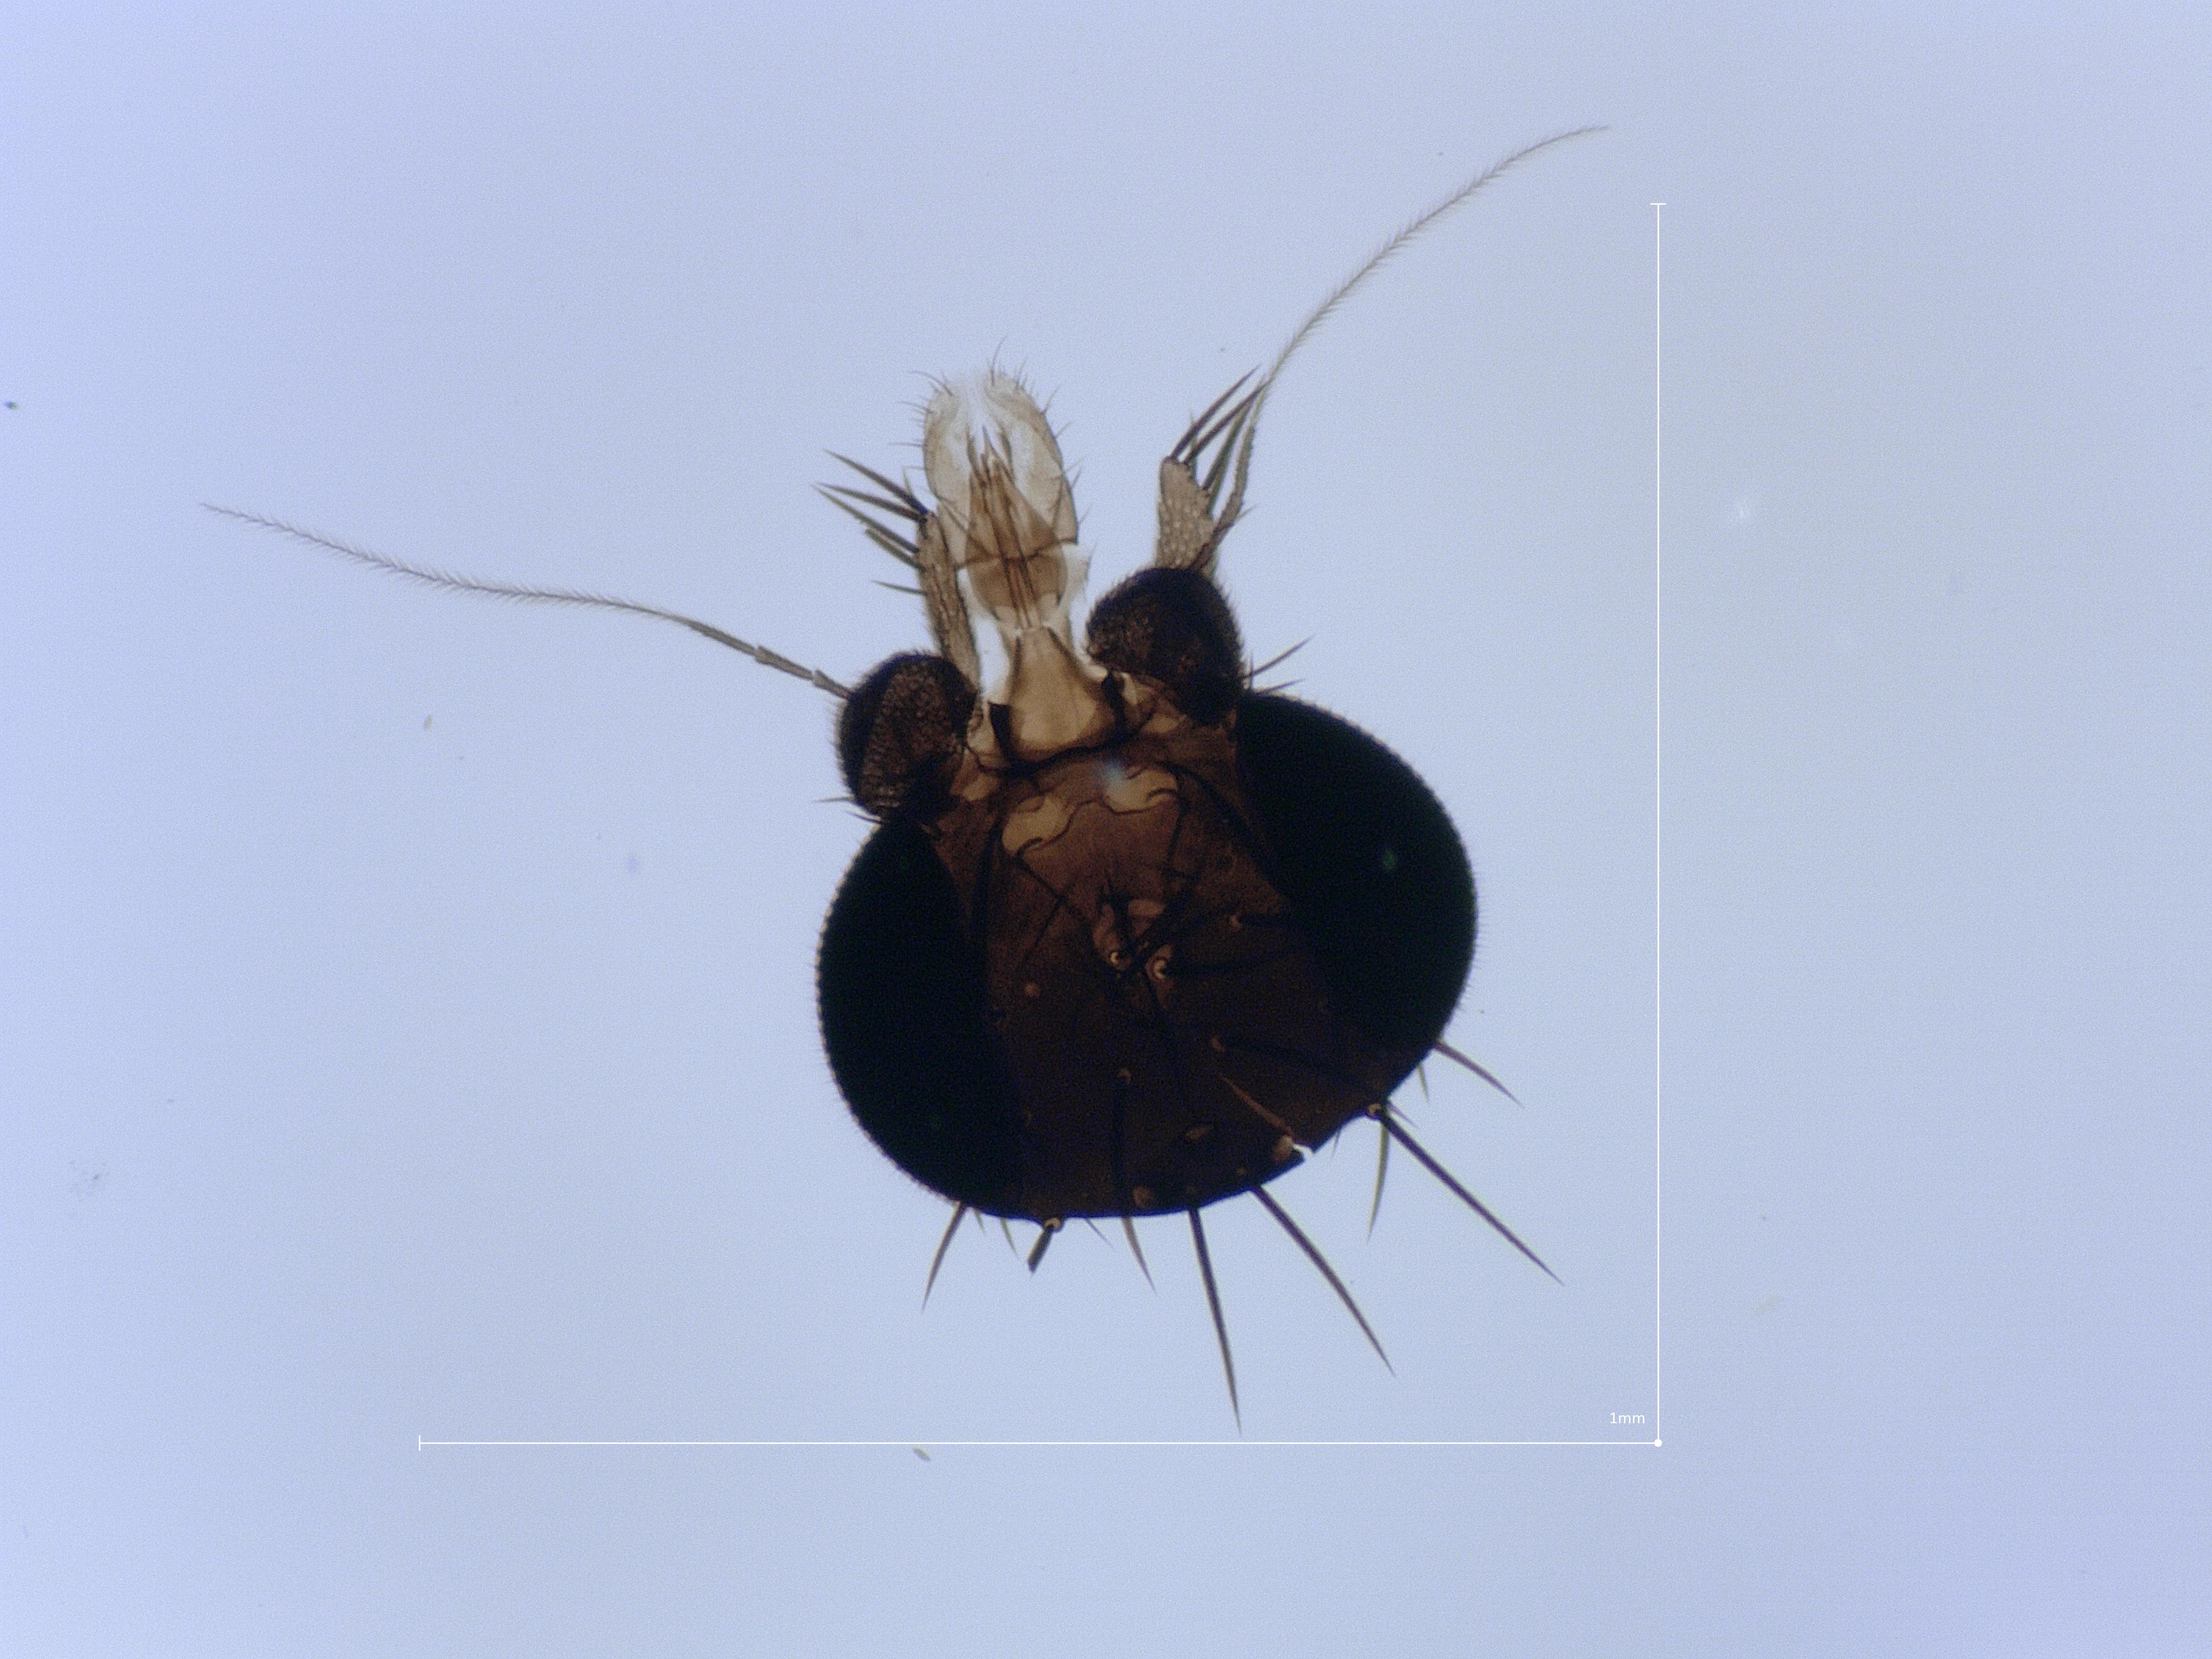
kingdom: Animalia
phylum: Arthropoda
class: Insecta
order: Diptera
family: Phoridae
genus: Megaselia
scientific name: Megaselia longicostalis
